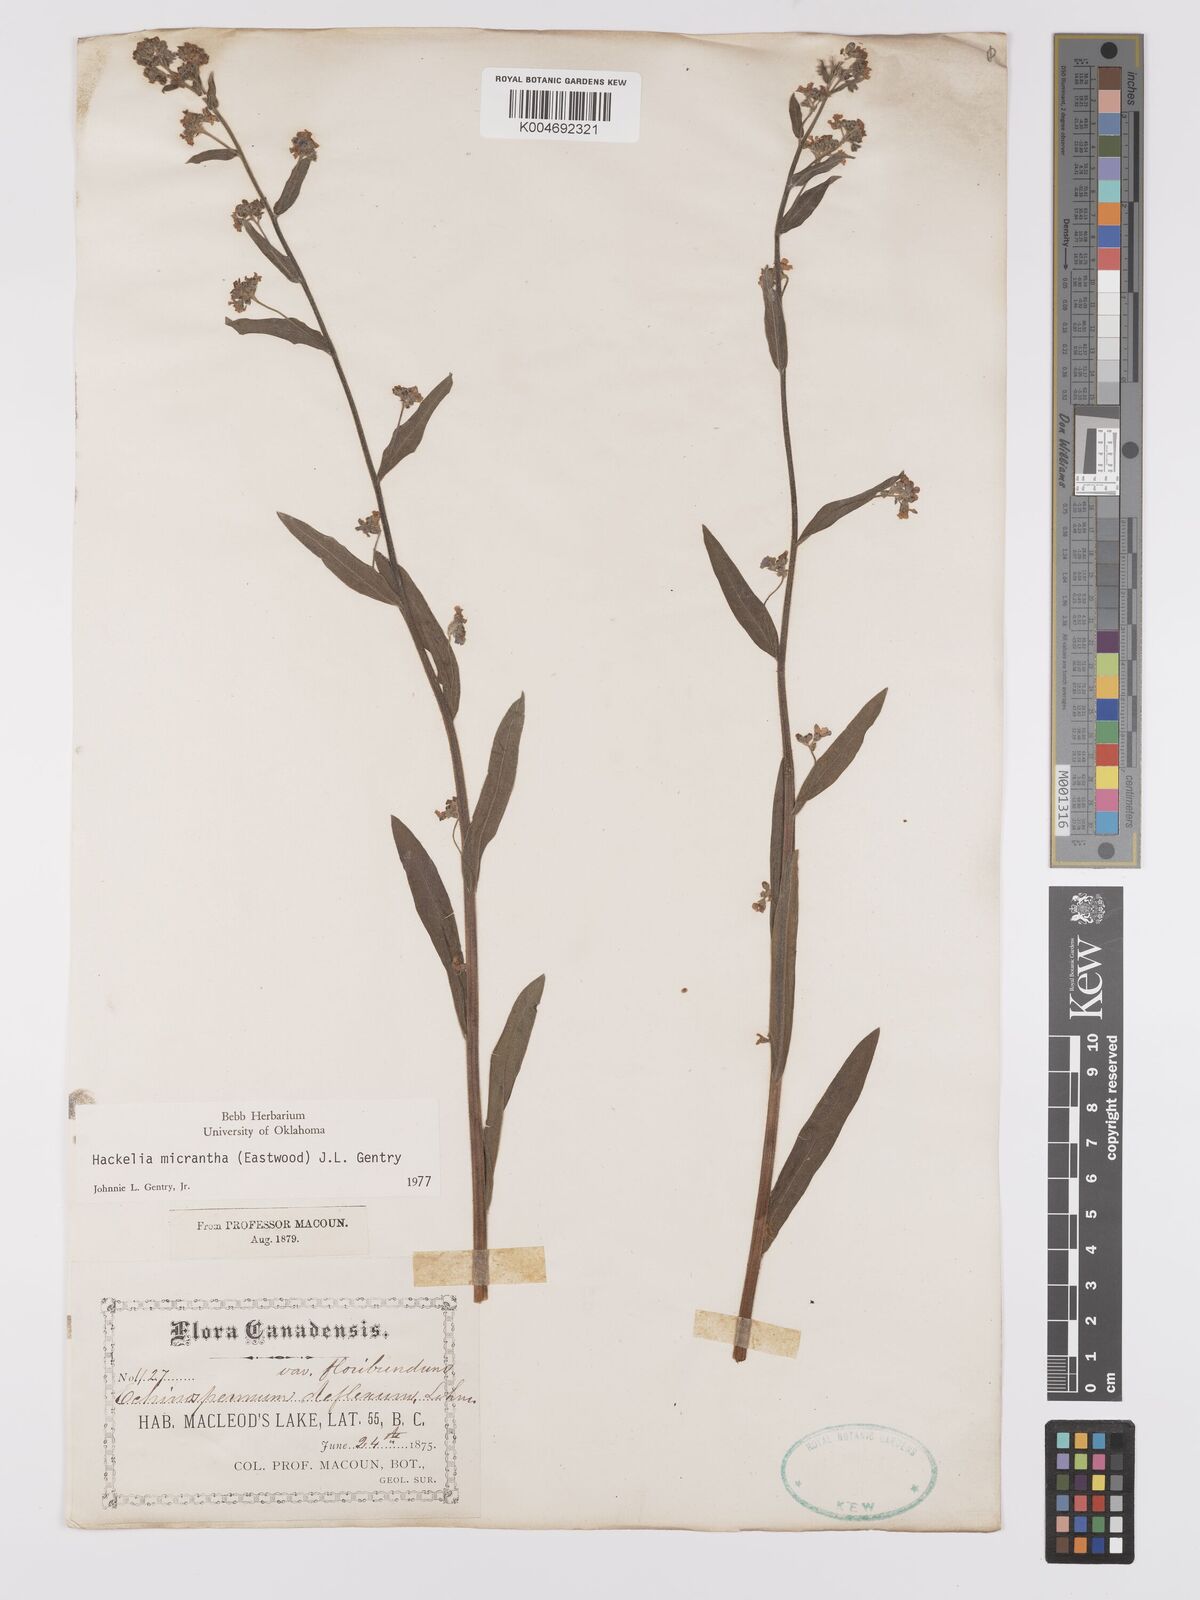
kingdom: Plantae
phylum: Tracheophyta
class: Magnoliopsida
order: Boraginales
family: Boraginaceae
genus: Hackelia
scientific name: Hackelia micrantha
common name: Meadow stickseed
